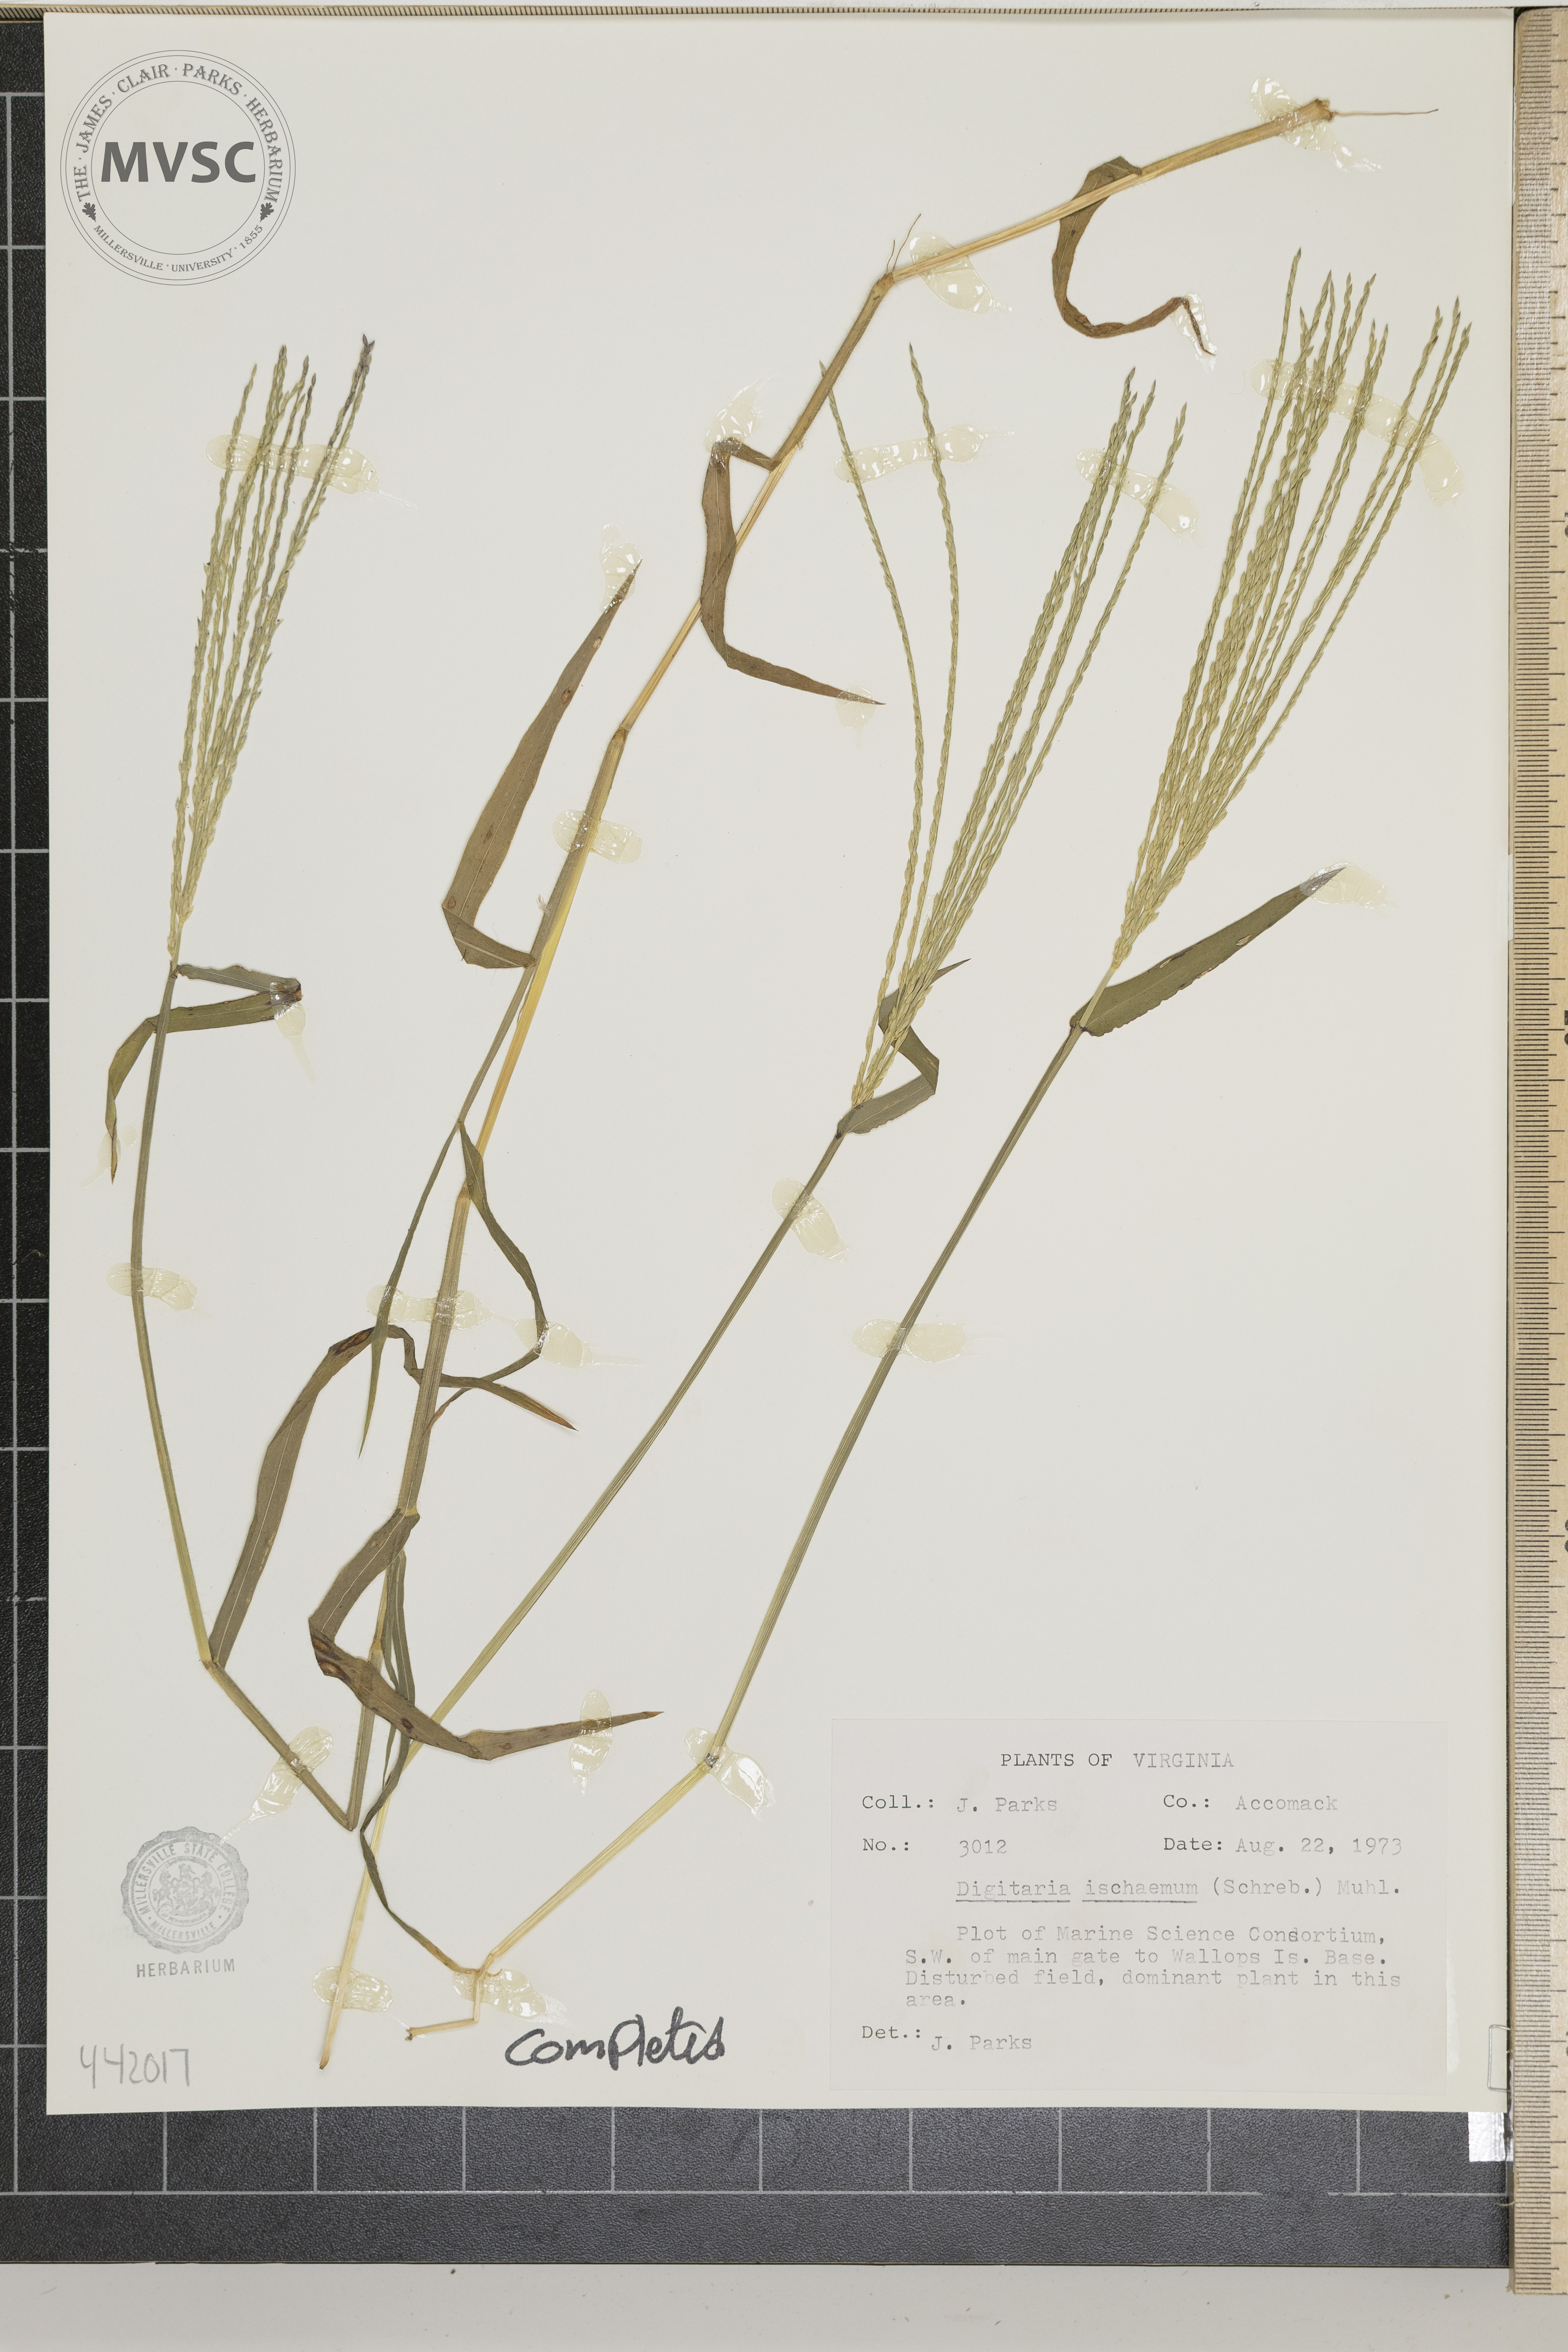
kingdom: Plantae
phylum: Tracheophyta
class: Liliopsida
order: Poales
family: Poaceae
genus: Digitaria
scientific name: Digitaria ischaemum
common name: Smooth crabgrass
